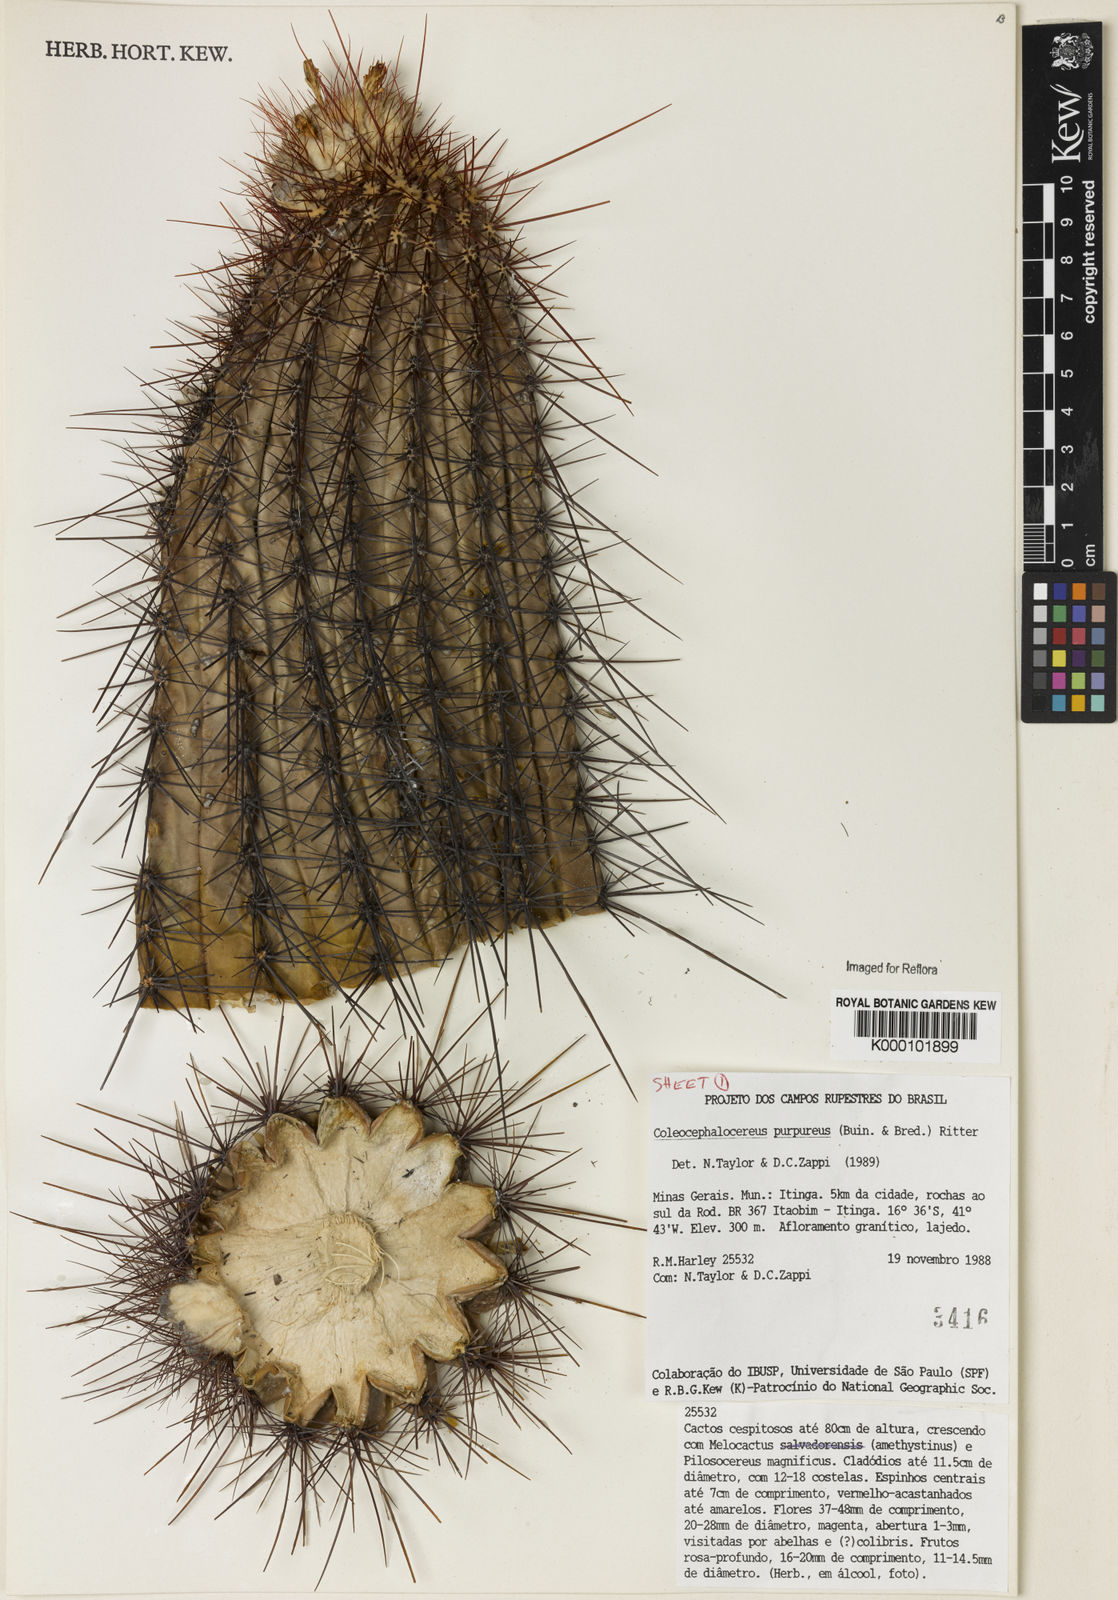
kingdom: Plantae
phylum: Tracheophyta
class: Magnoliopsida
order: Caryophyllales
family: Cactaceae
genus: Coleocephalocereus
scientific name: Coleocephalocereus purpureus
